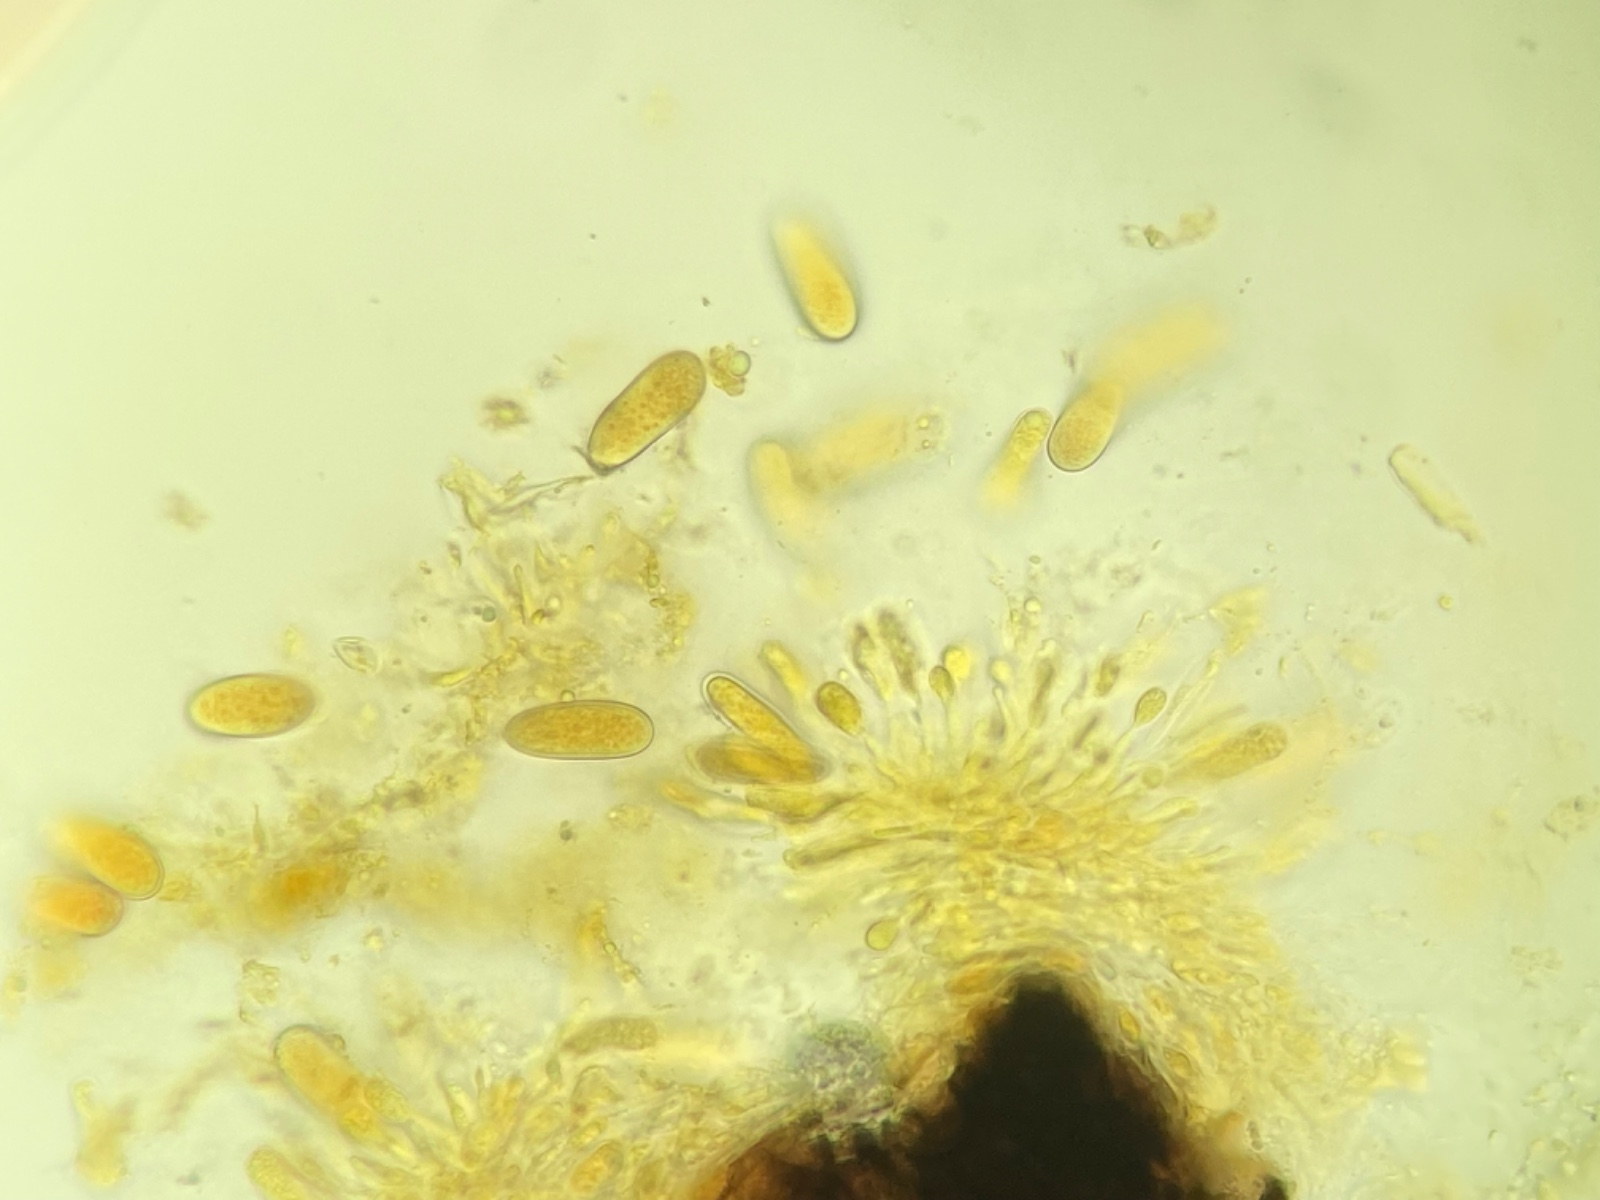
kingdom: Fungi
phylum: Ascomycota
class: Dothideomycetes
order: Botryosphaeriales
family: Botryosphaeriaceae
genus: Botryosphaeria
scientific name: Botryosphaeria stevensii
